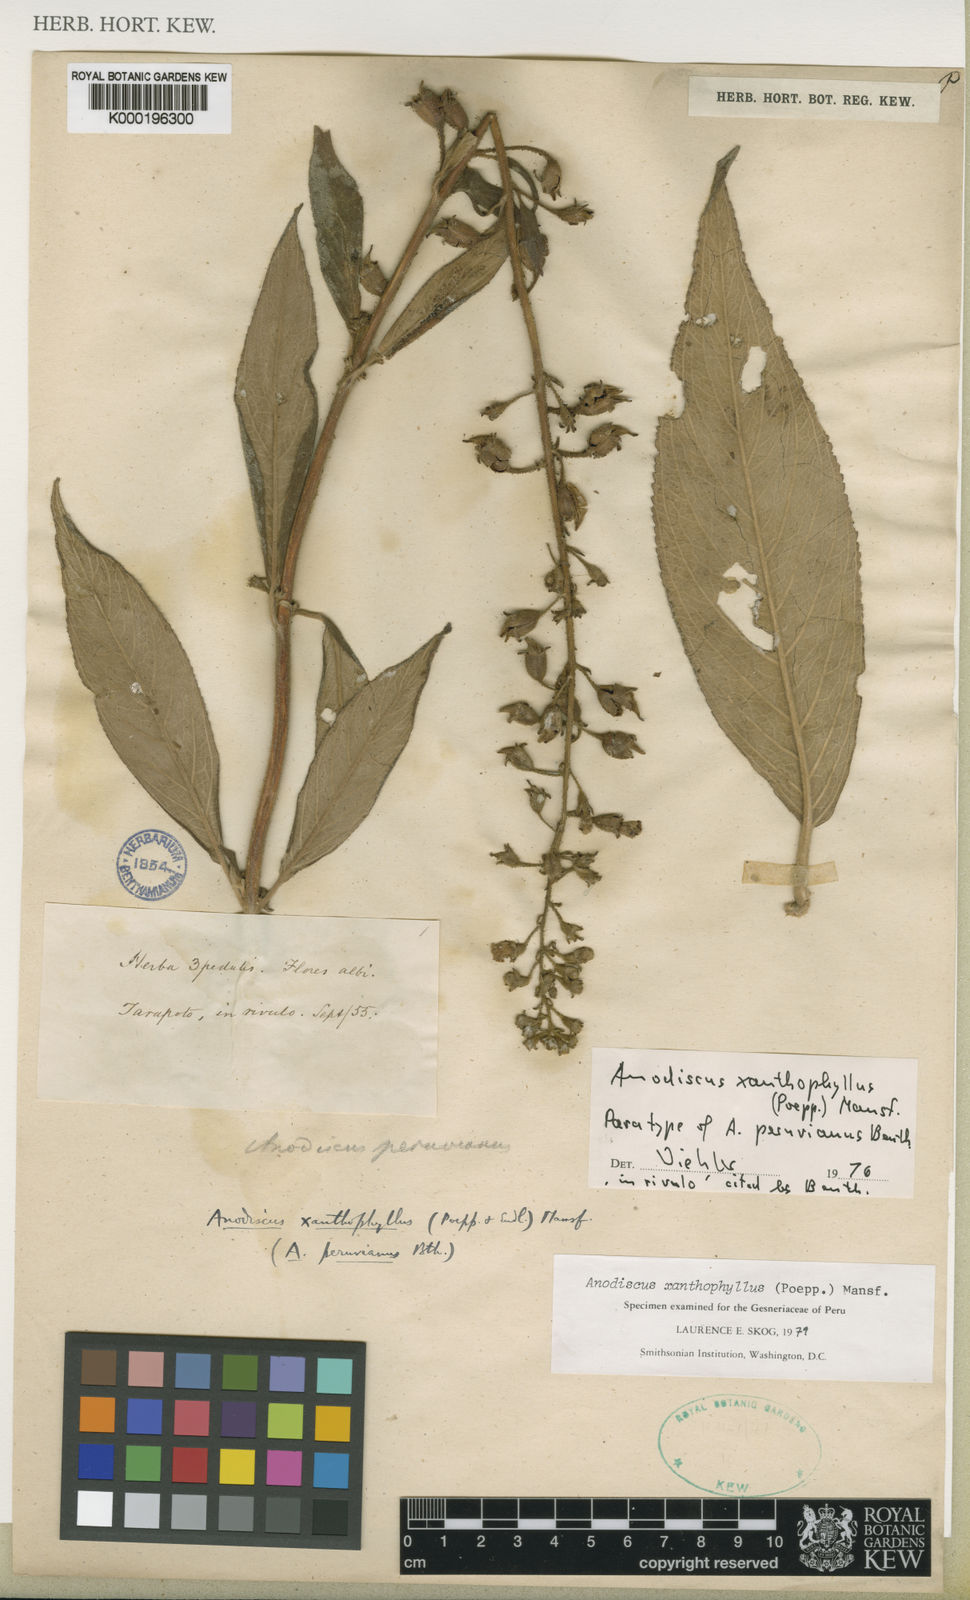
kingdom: Plantae
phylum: Tracheophyta
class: Magnoliopsida
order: Lamiales
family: Gesneriaceae
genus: Gloxinia
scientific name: Gloxinia xanthophylla
